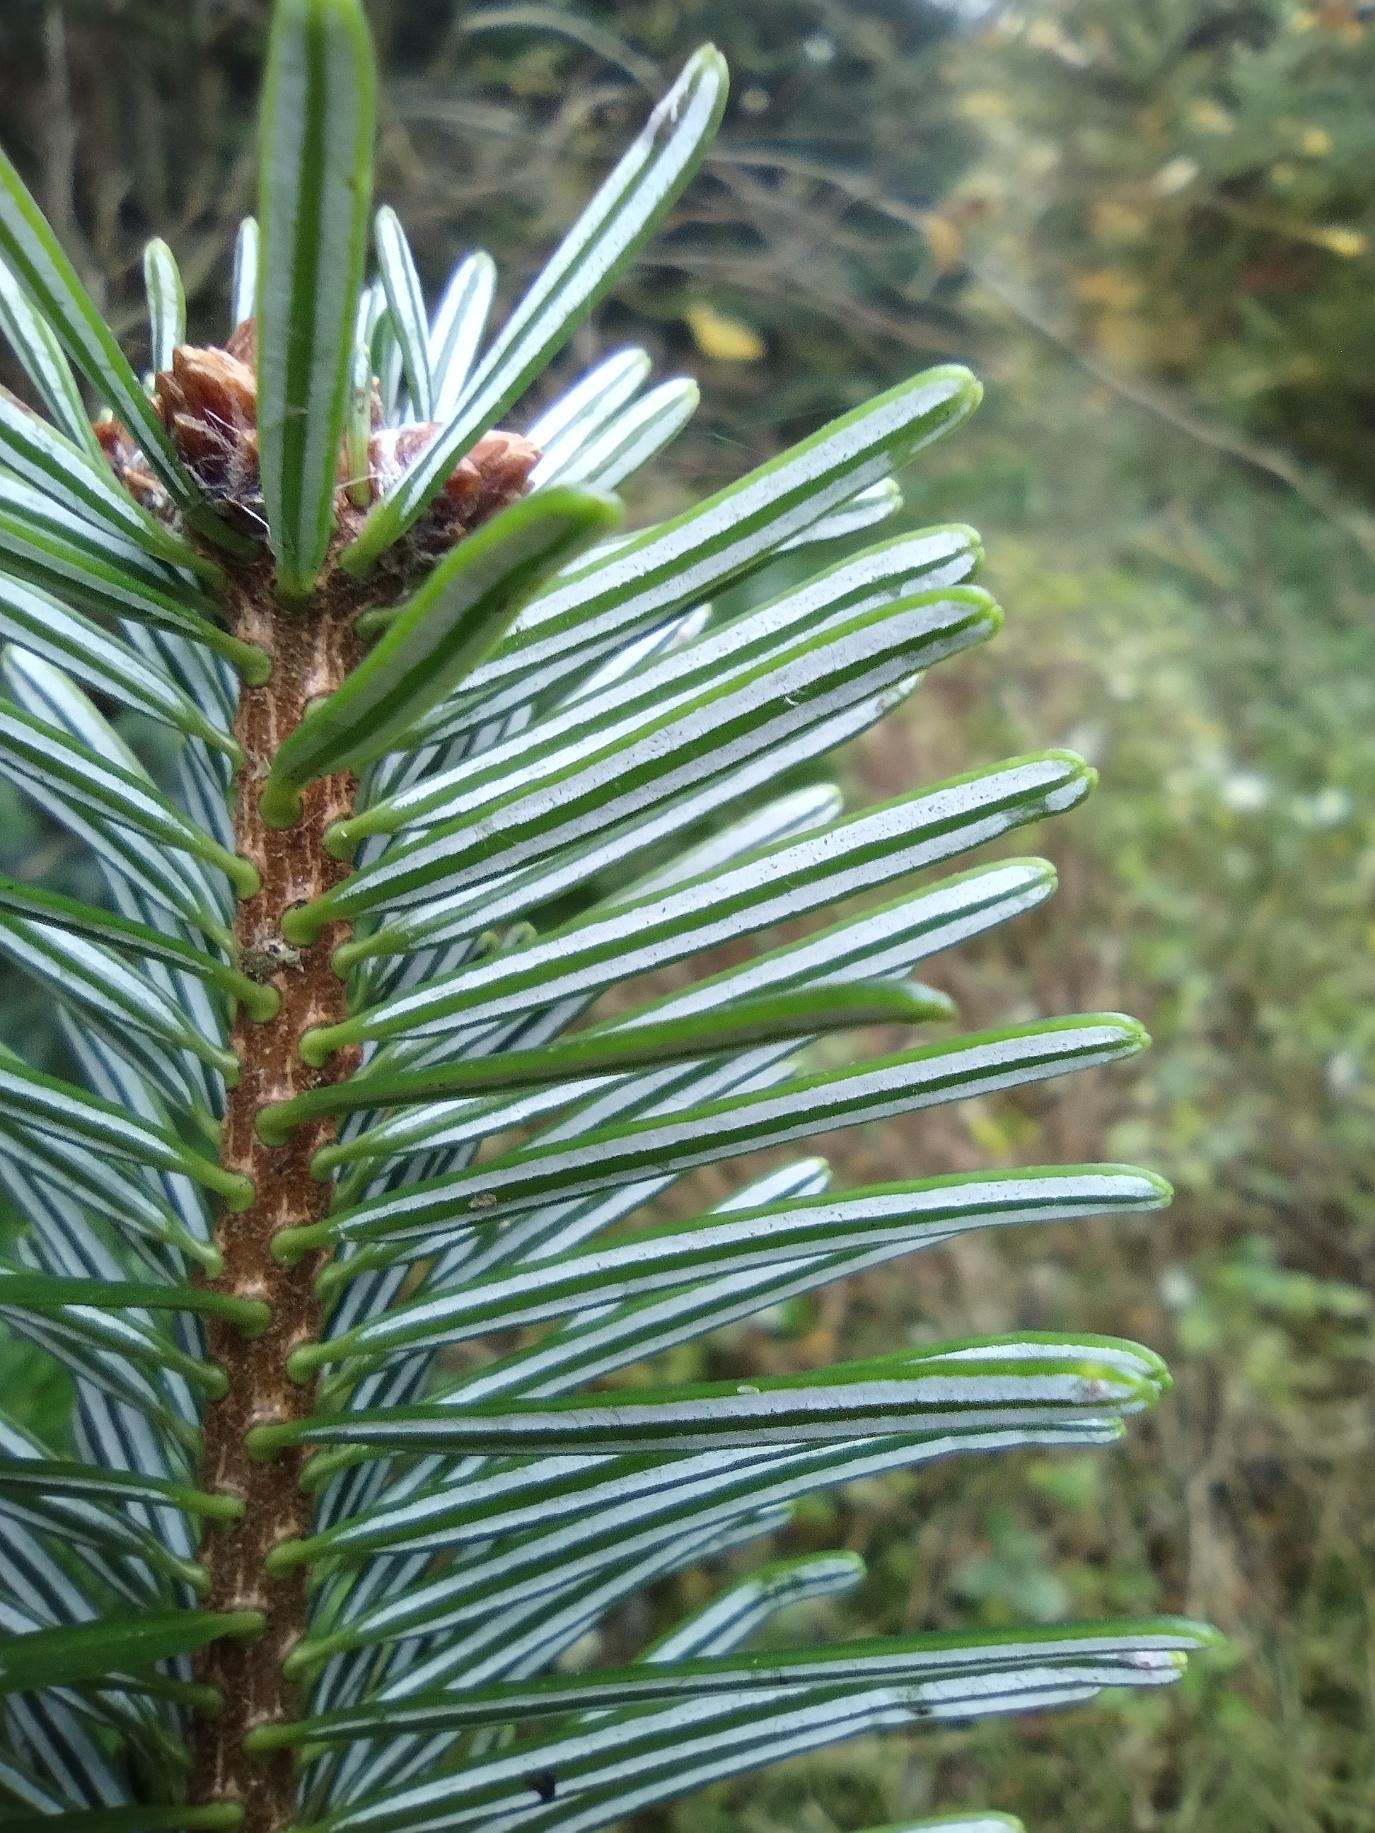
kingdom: Plantae
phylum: Tracheophyta
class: Pinopsida
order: Pinales
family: Pinaceae
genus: Abies
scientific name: Abies nordmanniana
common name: Nordmannsgran
